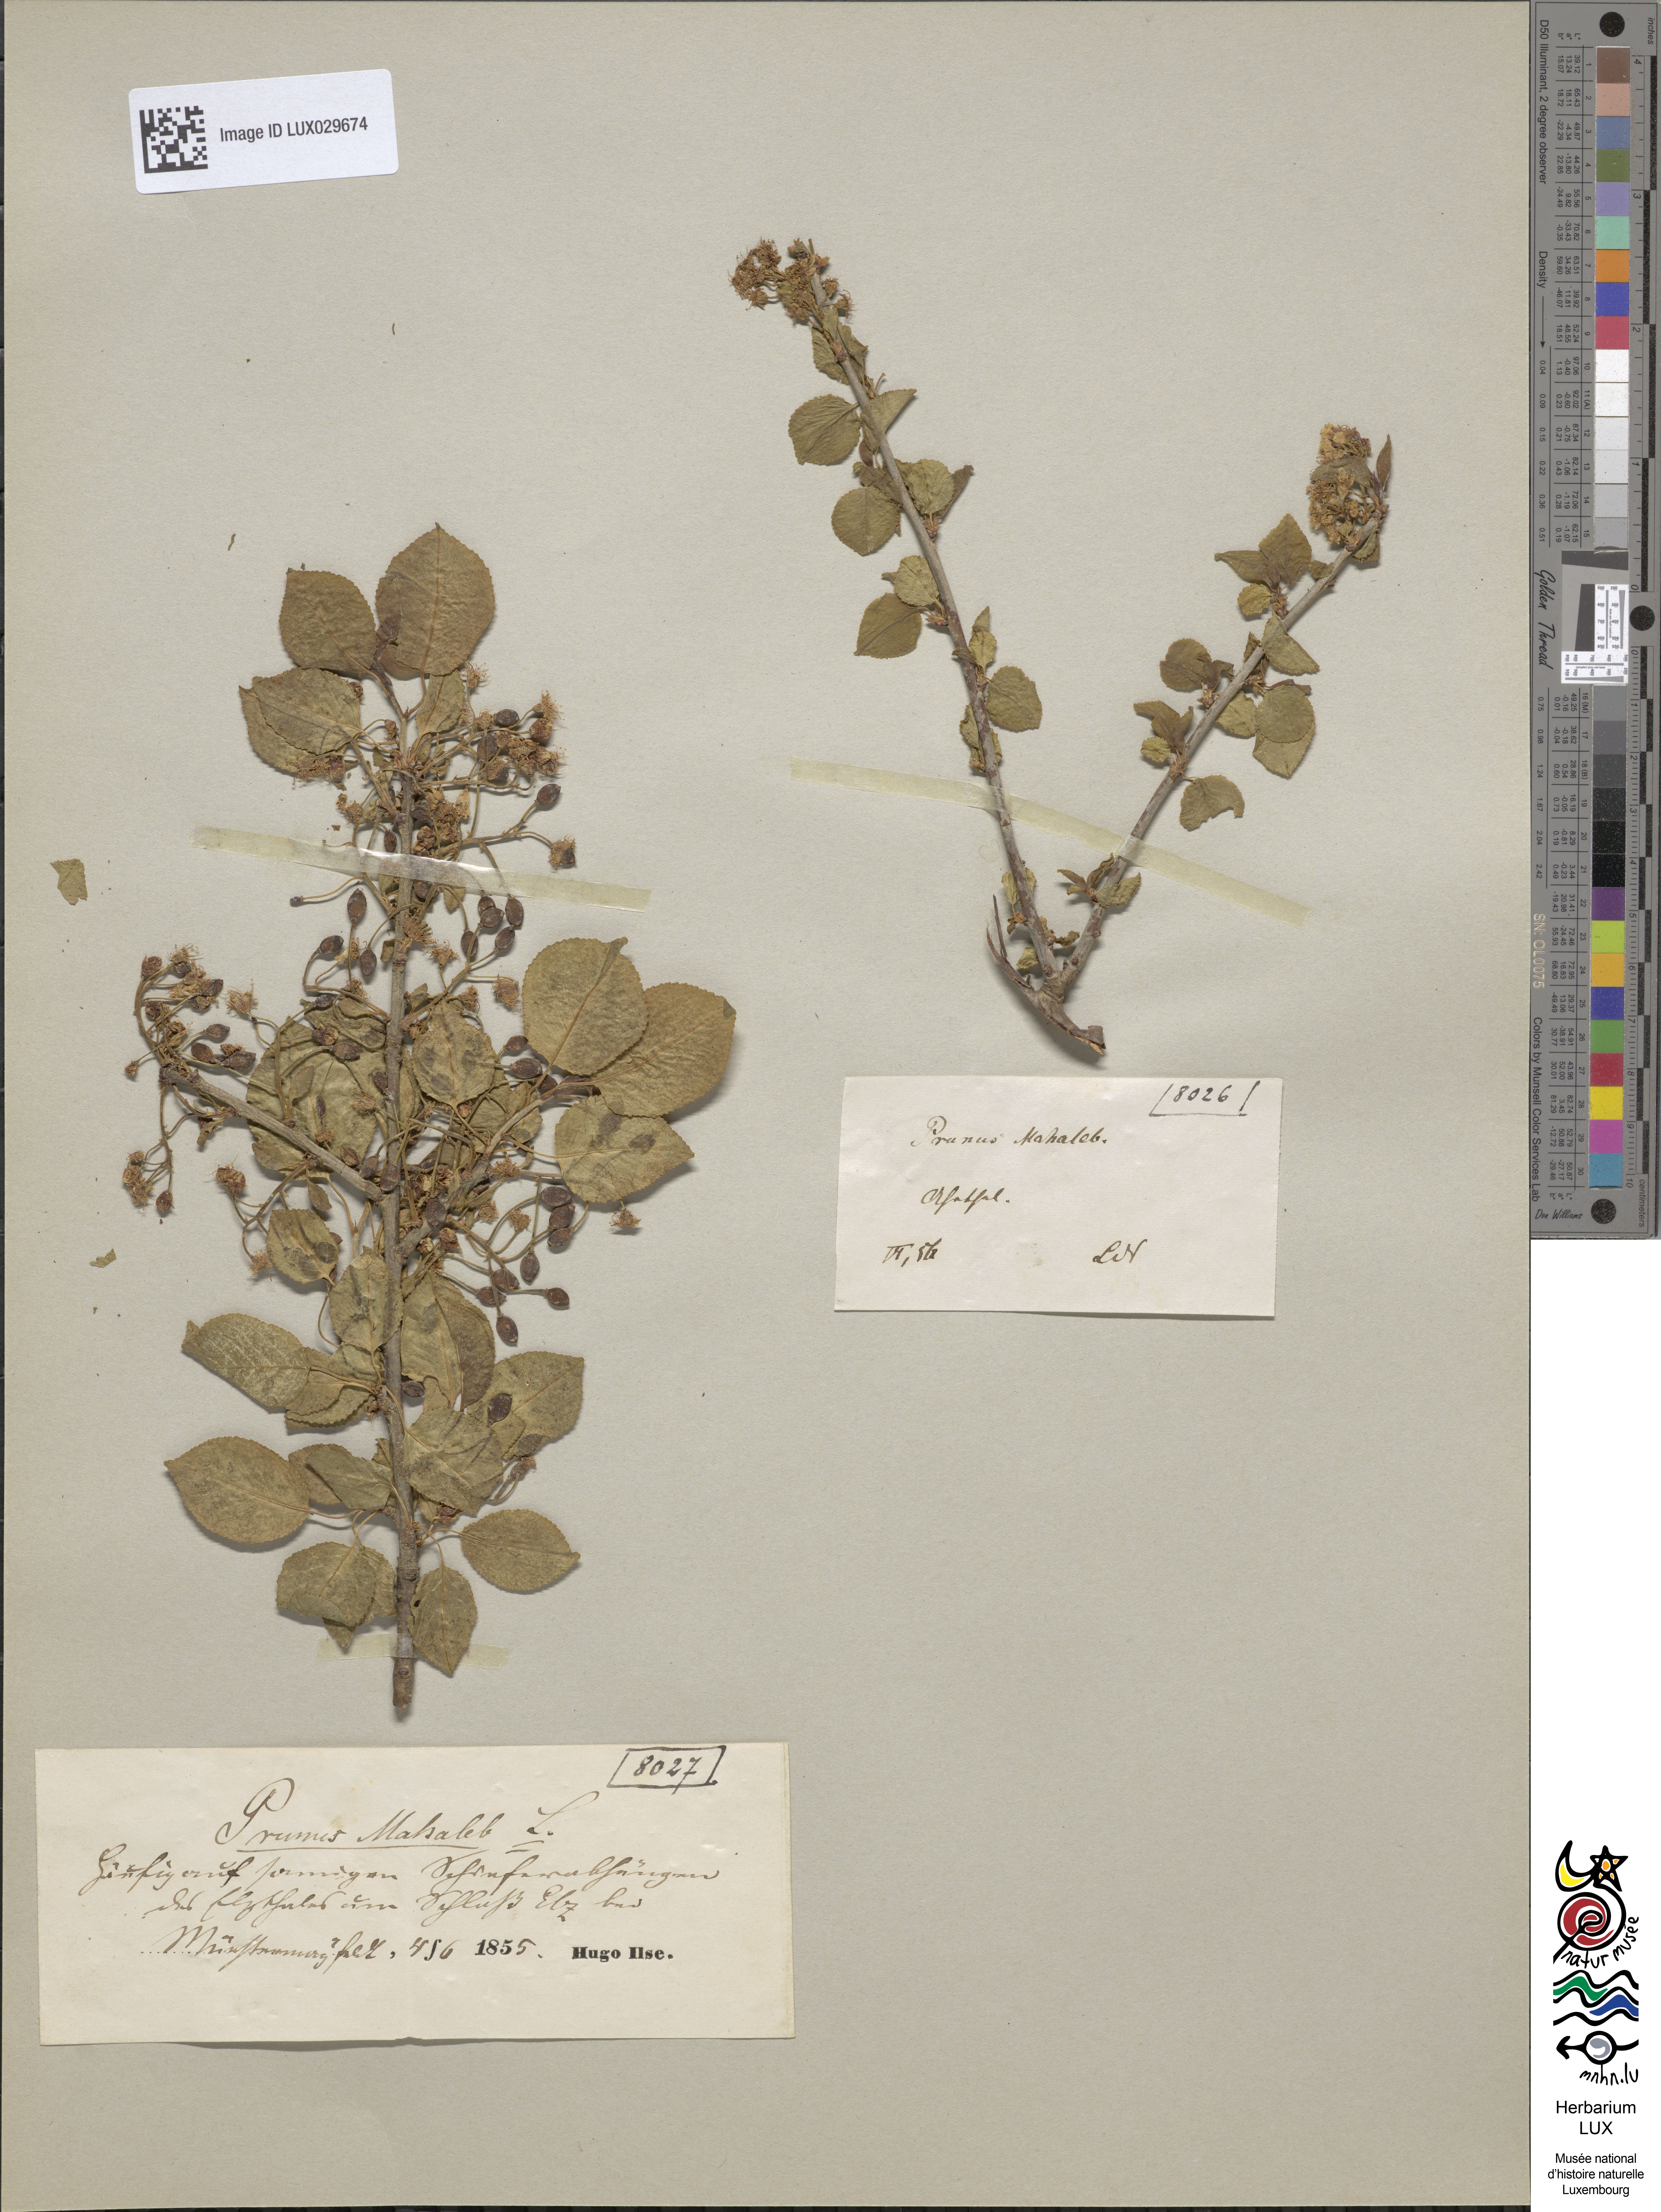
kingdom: Plantae
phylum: Tracheophyta
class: Magnoliopsida
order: Rosales
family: Rosaceae
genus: Prunus
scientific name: Prunus mahaleb
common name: Mahaleb cherry
